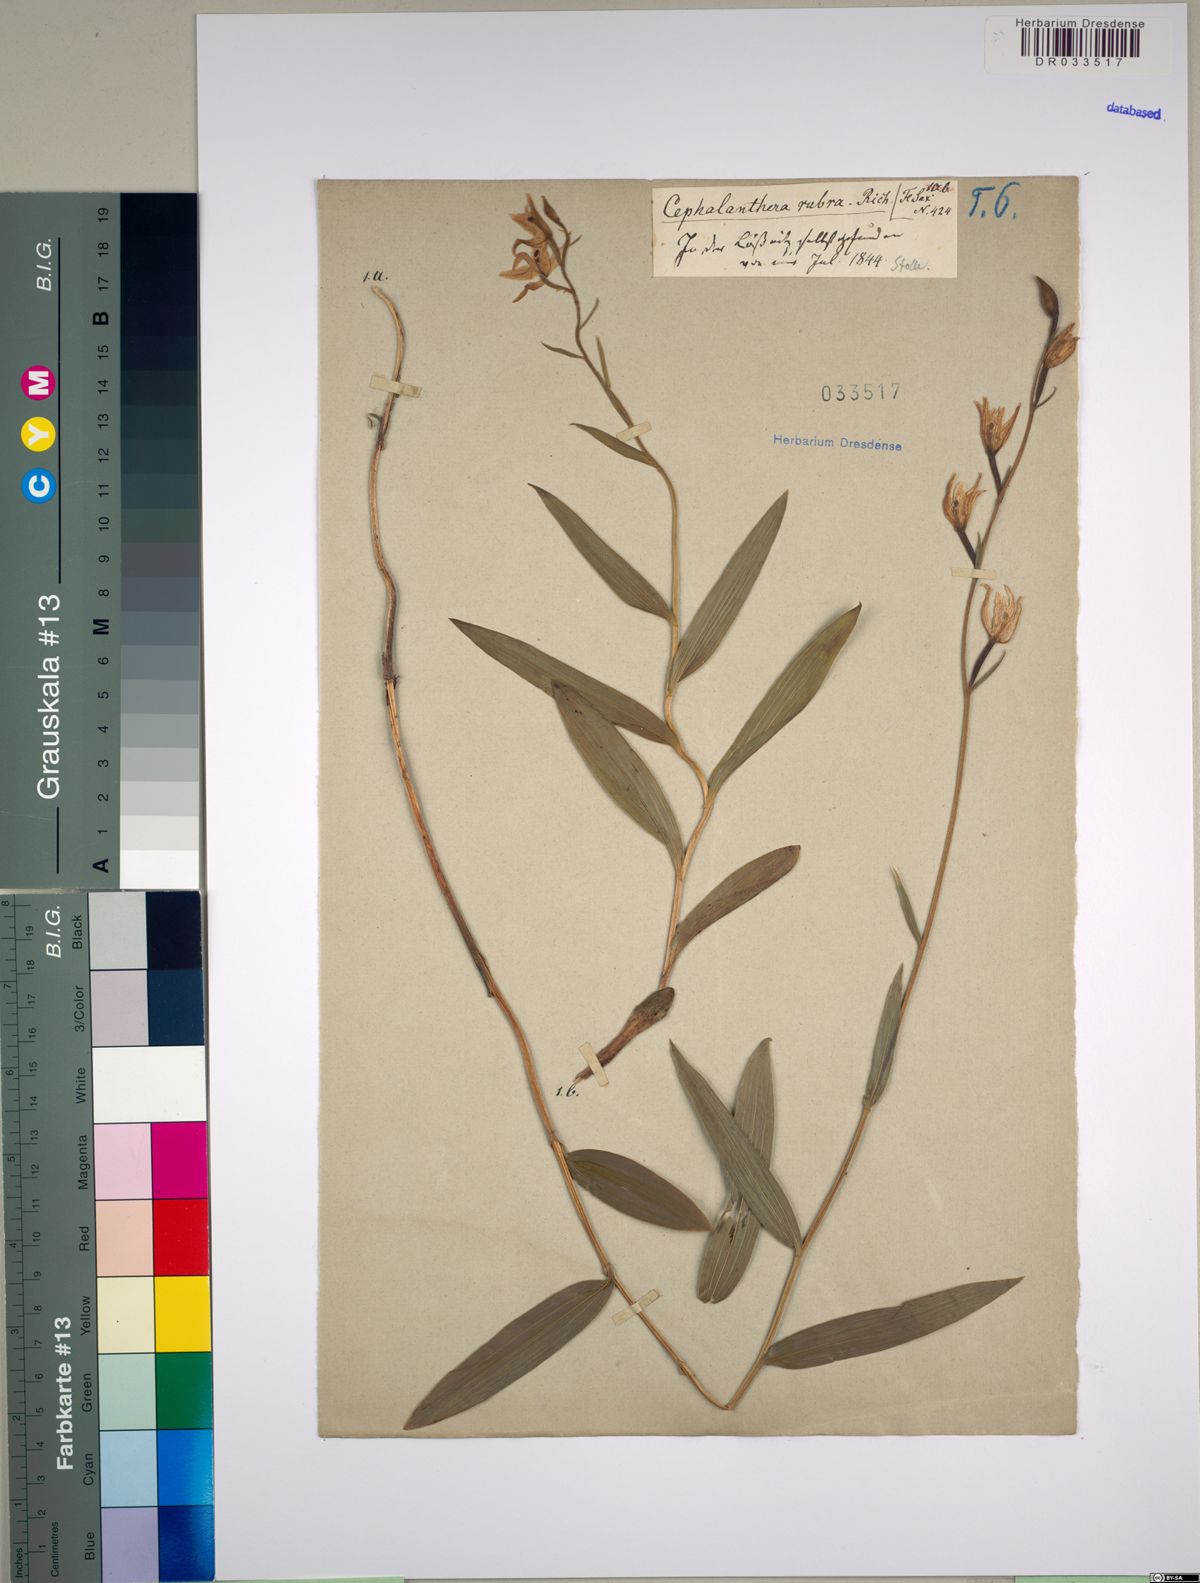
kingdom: Plantae
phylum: Tracheophyta
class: Liliopsida
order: Asparagales
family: Orchidaceae
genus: Cephalanthera
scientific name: Cephalanthera rubra
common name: Red helleborine
